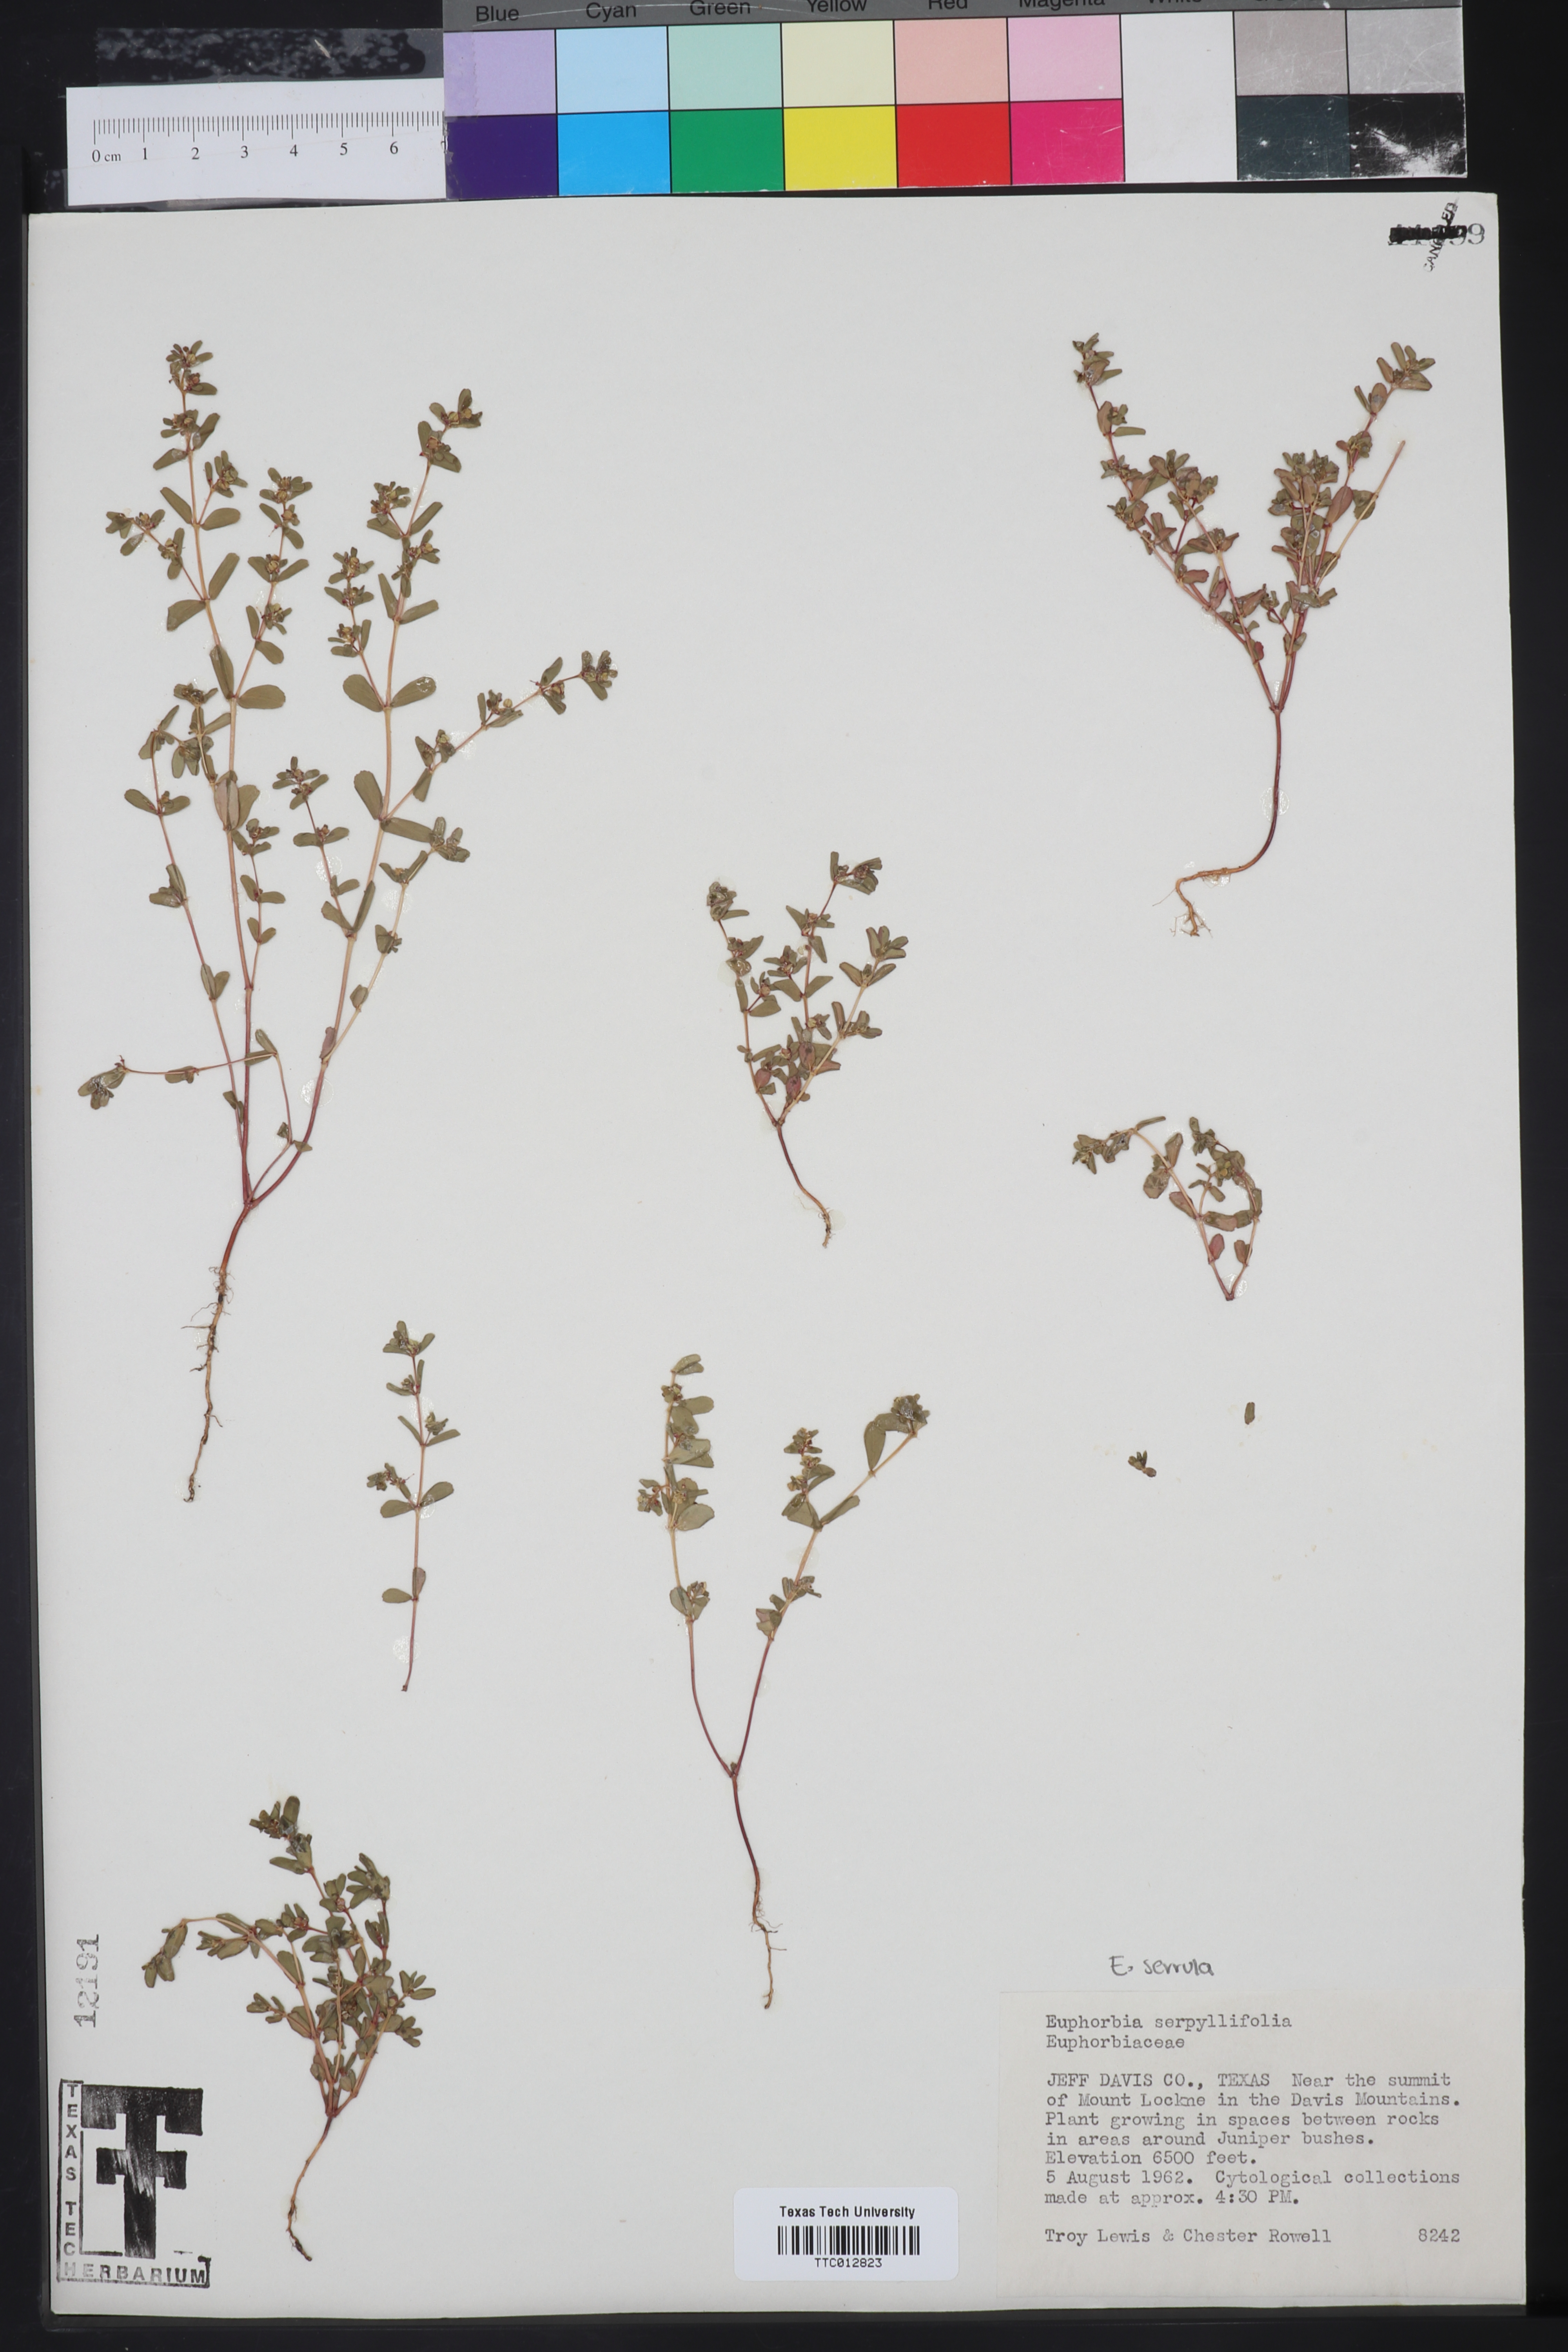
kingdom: Plantae
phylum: Tracheophyta
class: Magnoliopsida
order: Malpighiales
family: Euphorbiaceae
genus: Euphorbia
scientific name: Euphorbia serpillifolia
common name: Thyme-leaf spurge
